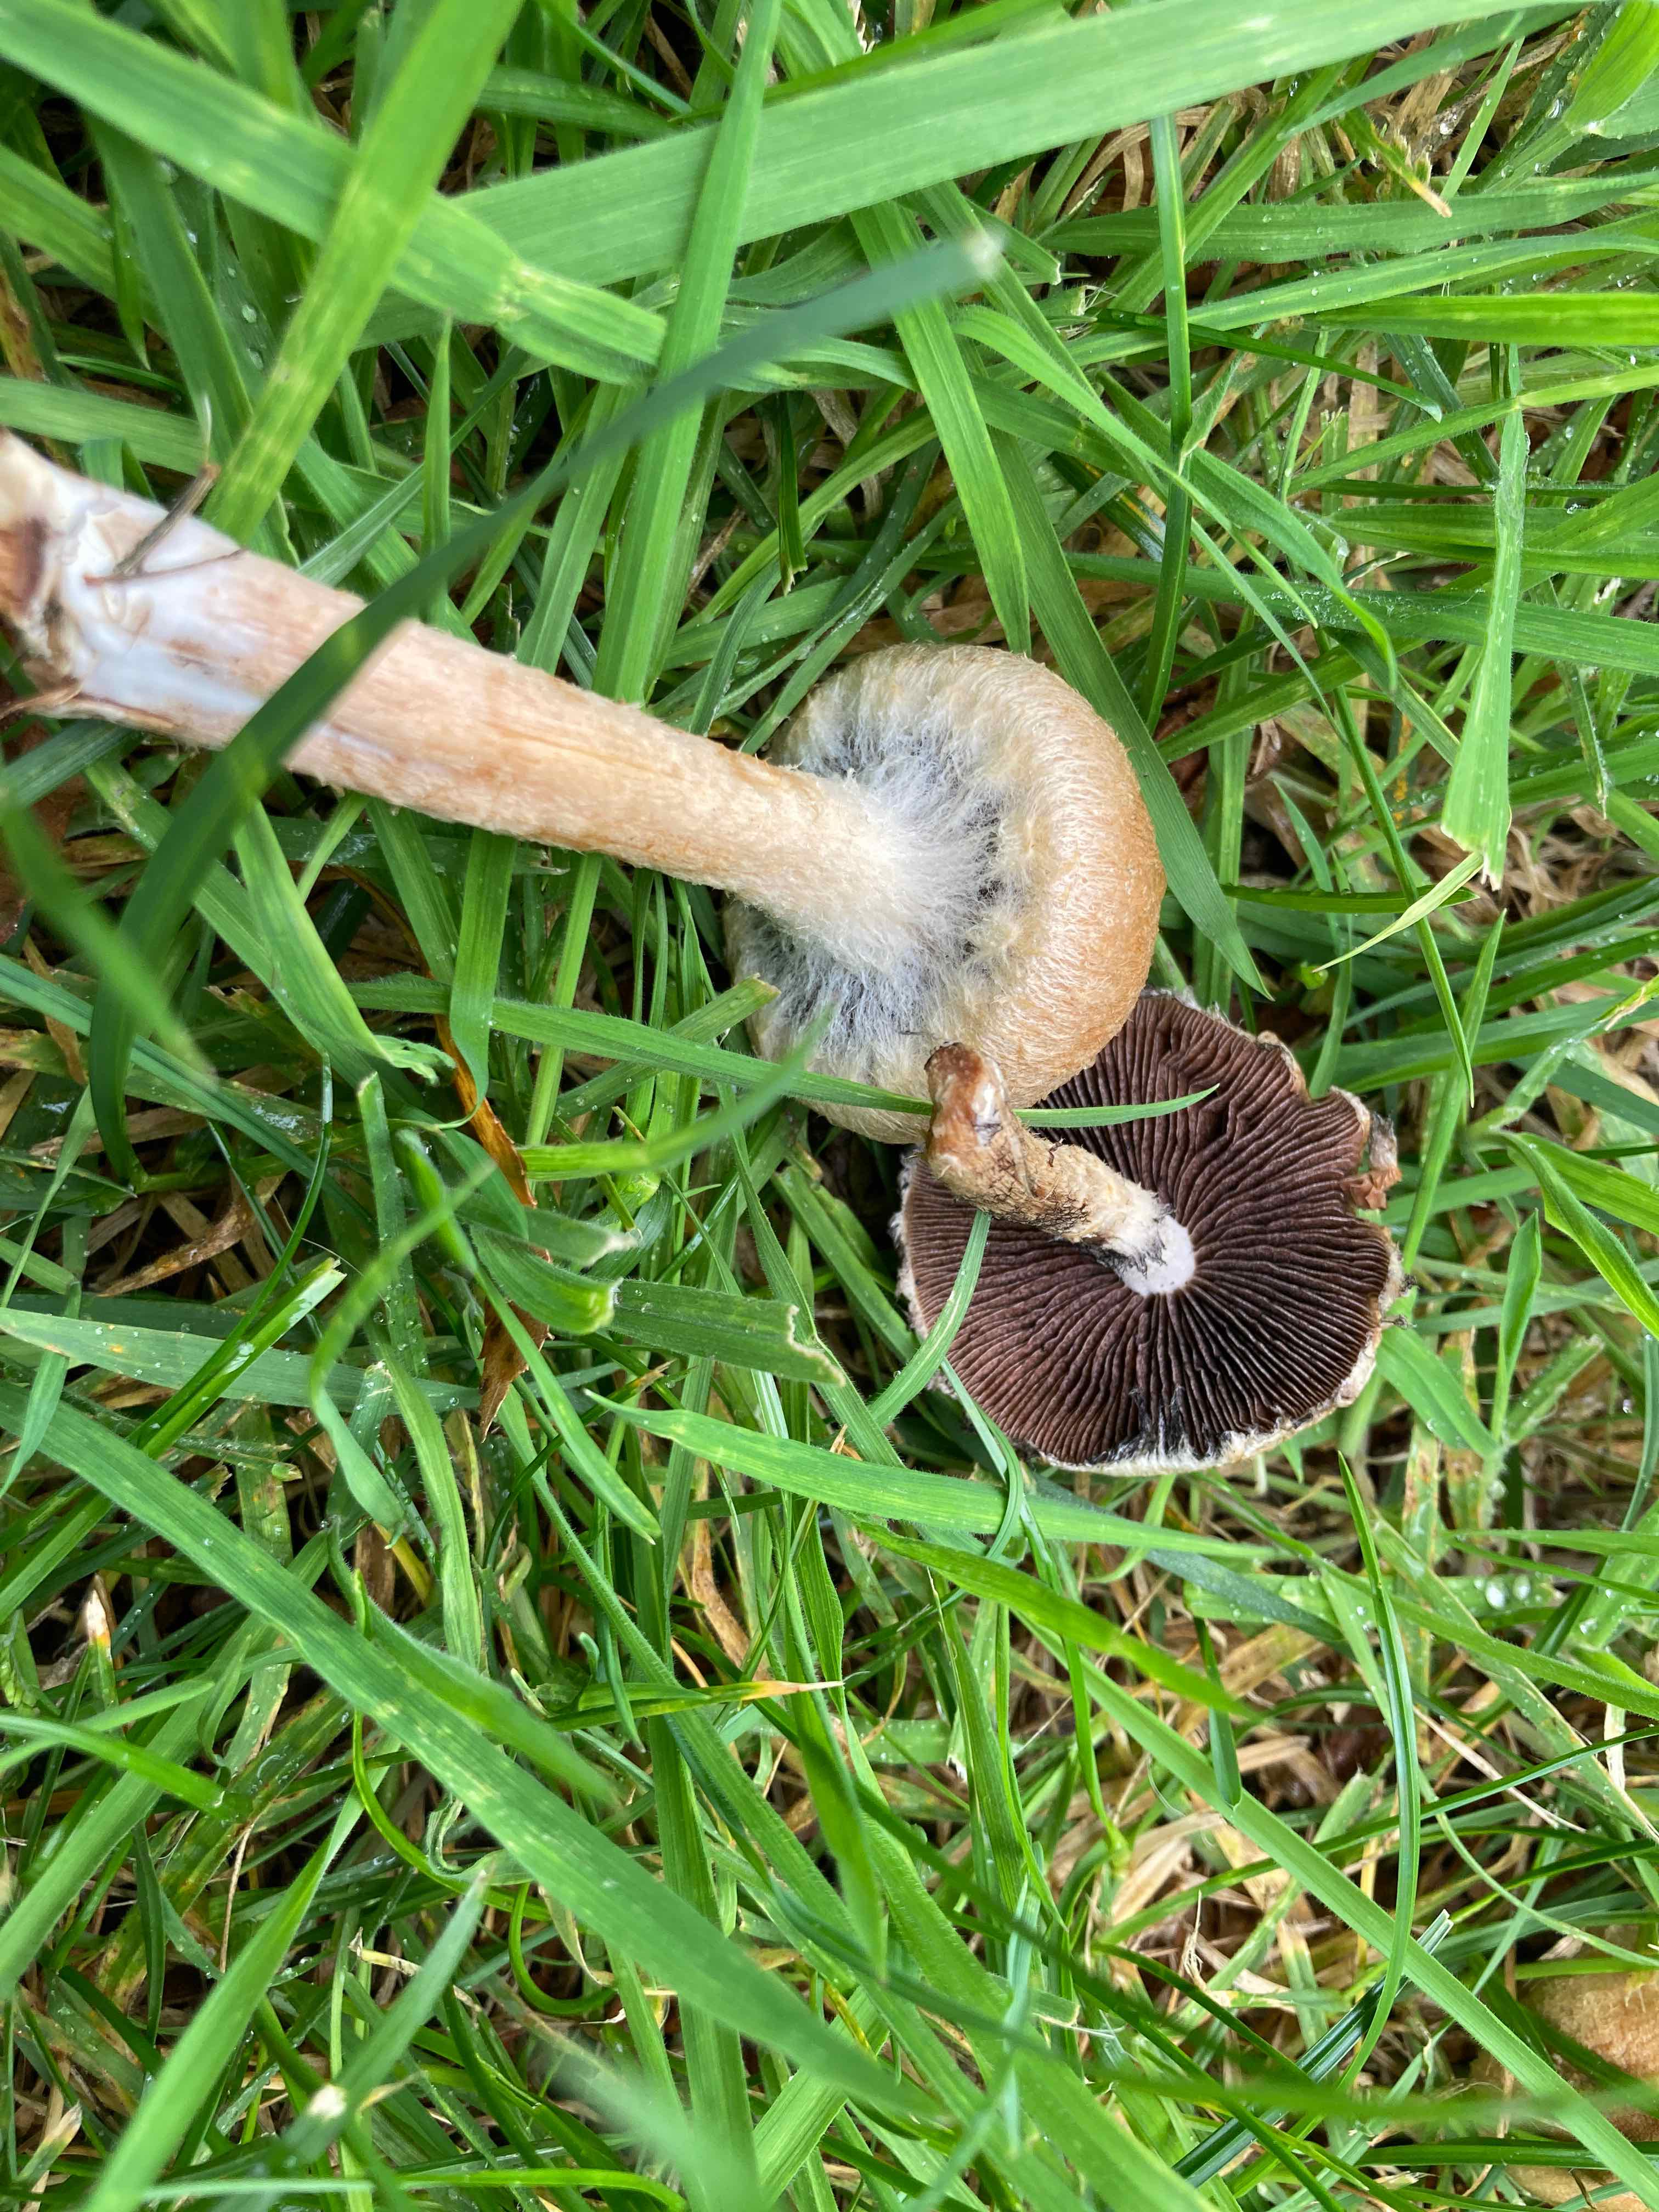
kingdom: Fungi
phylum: Basidiomycota
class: Agaricomycetes
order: Agaricales
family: Psathyrellaceae
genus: Lacrymaria
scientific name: Lacrymaria lacrymabunda
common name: grædende mørkhat
